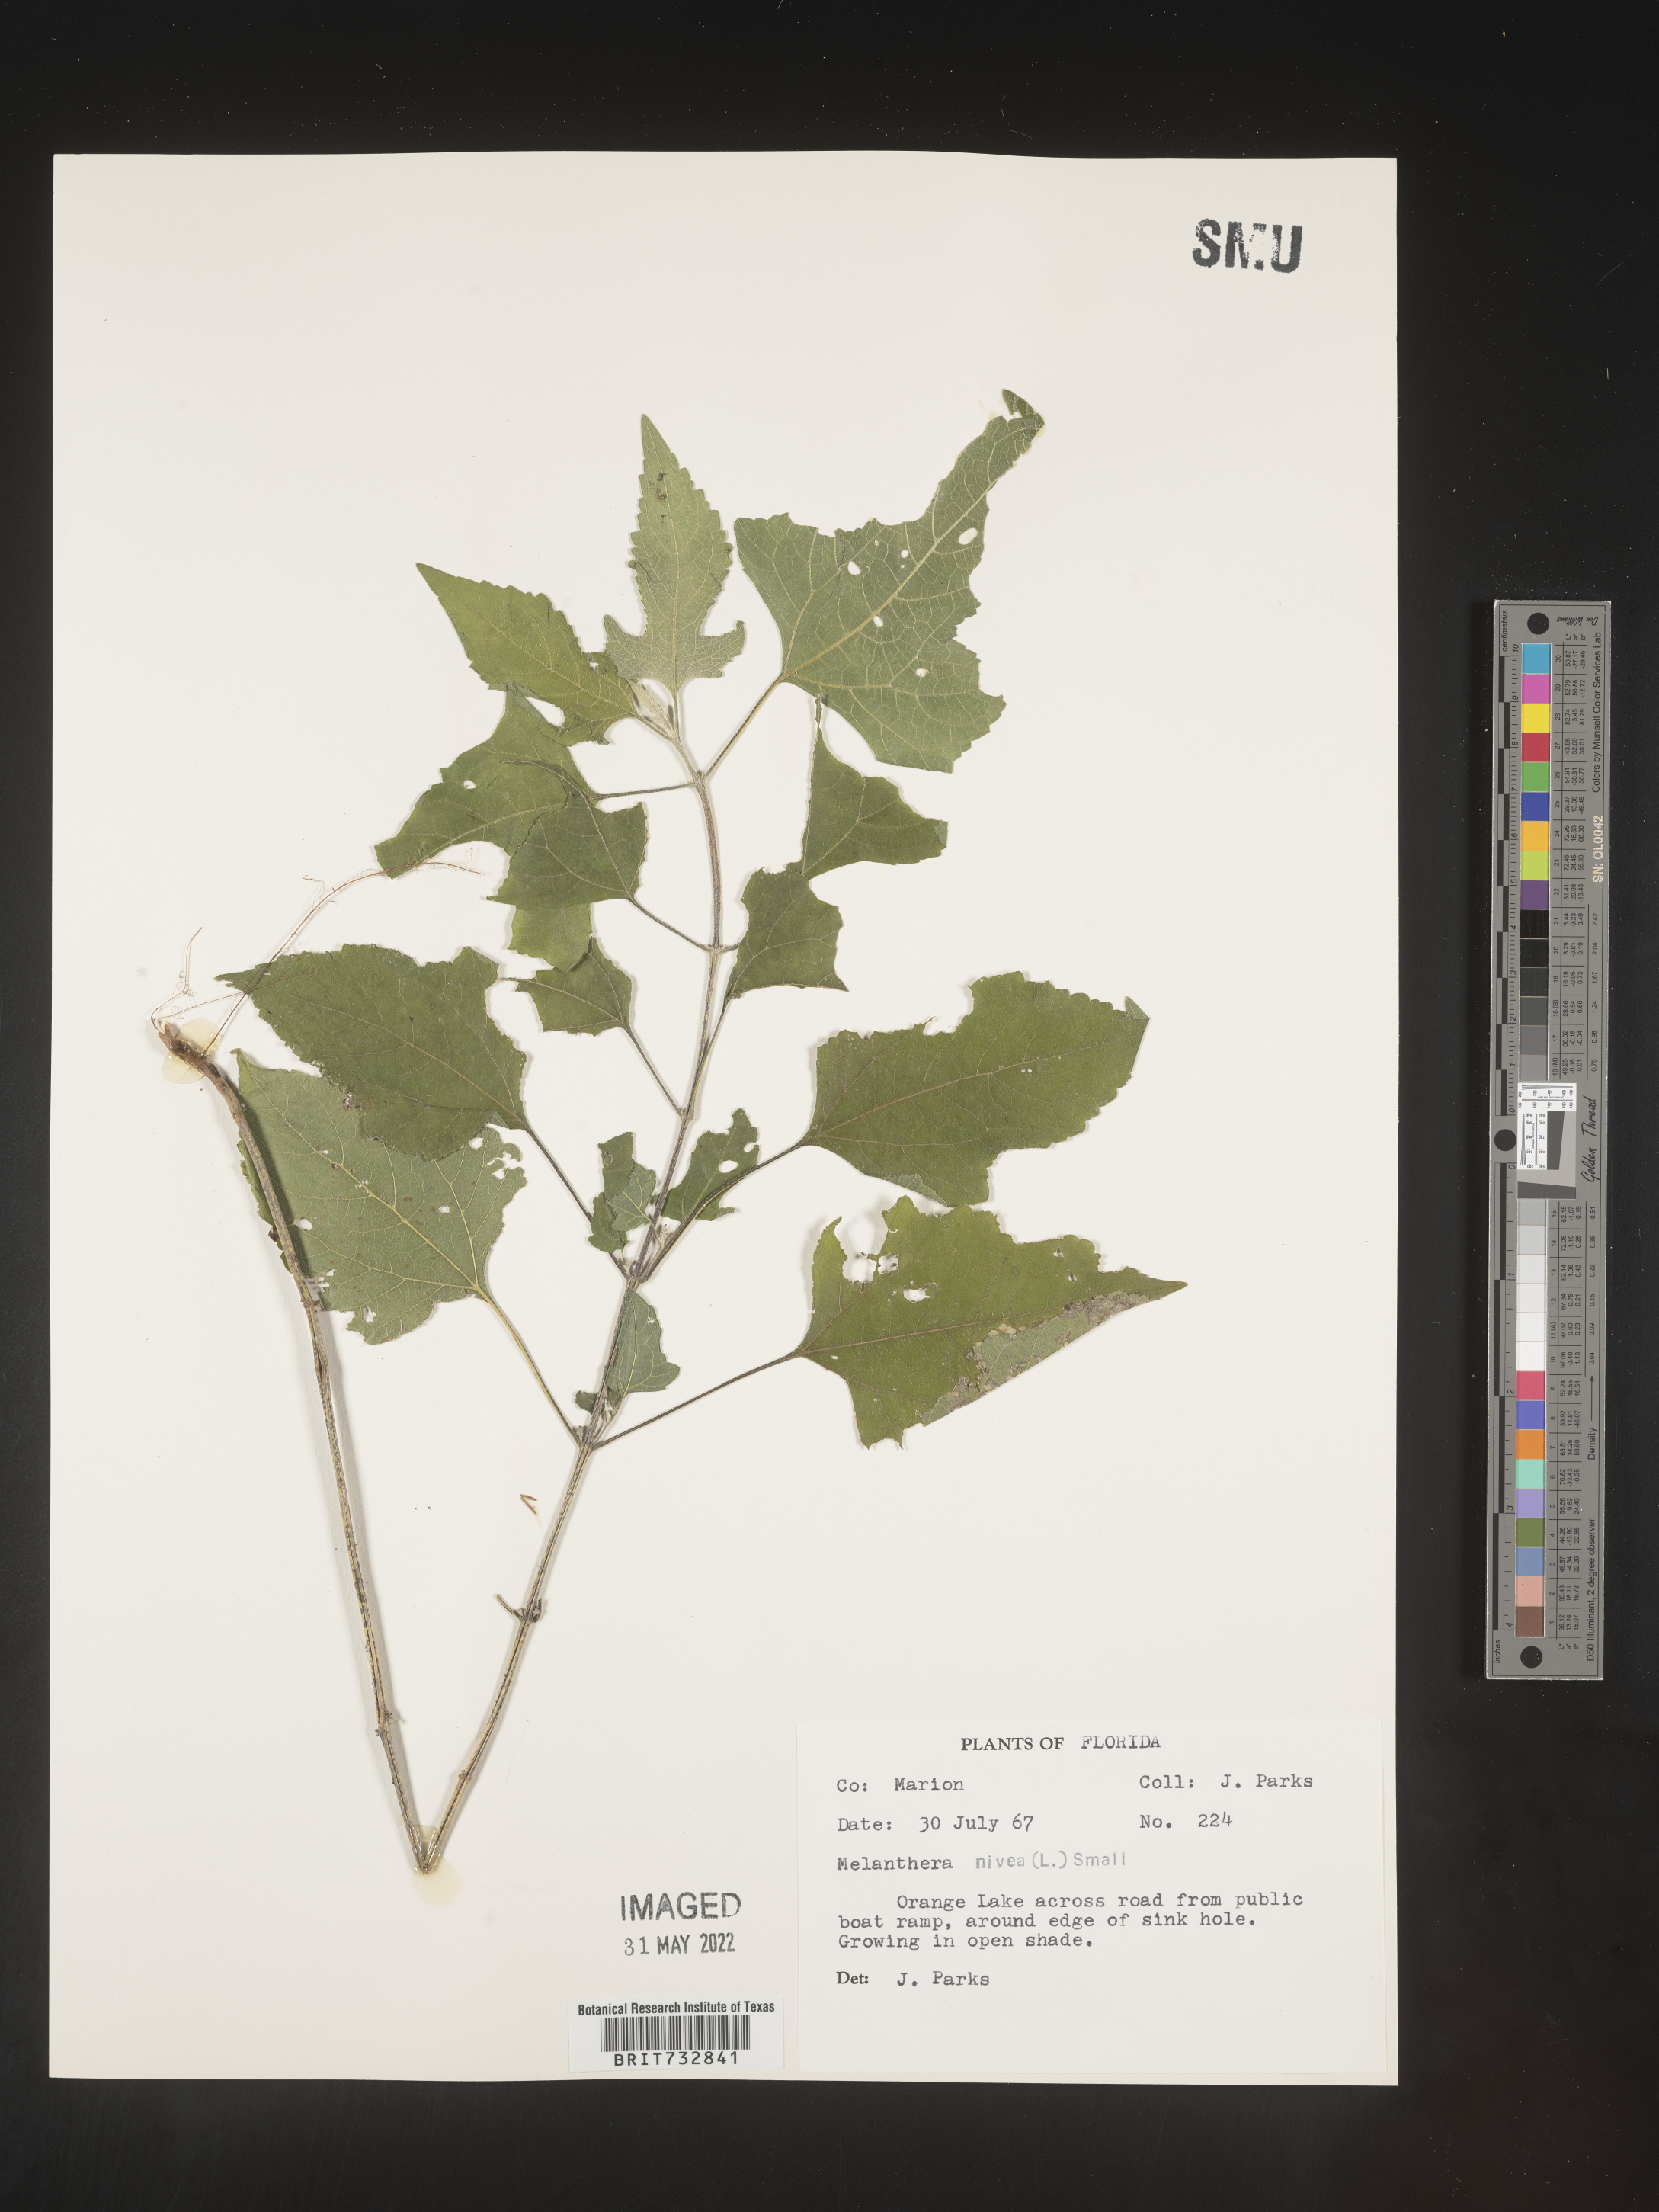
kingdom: Plantae
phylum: Tracheophyta
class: Magnoliopsida
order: Asterales
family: Asteraceae
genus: Melanthera
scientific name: Melanthera nivea
